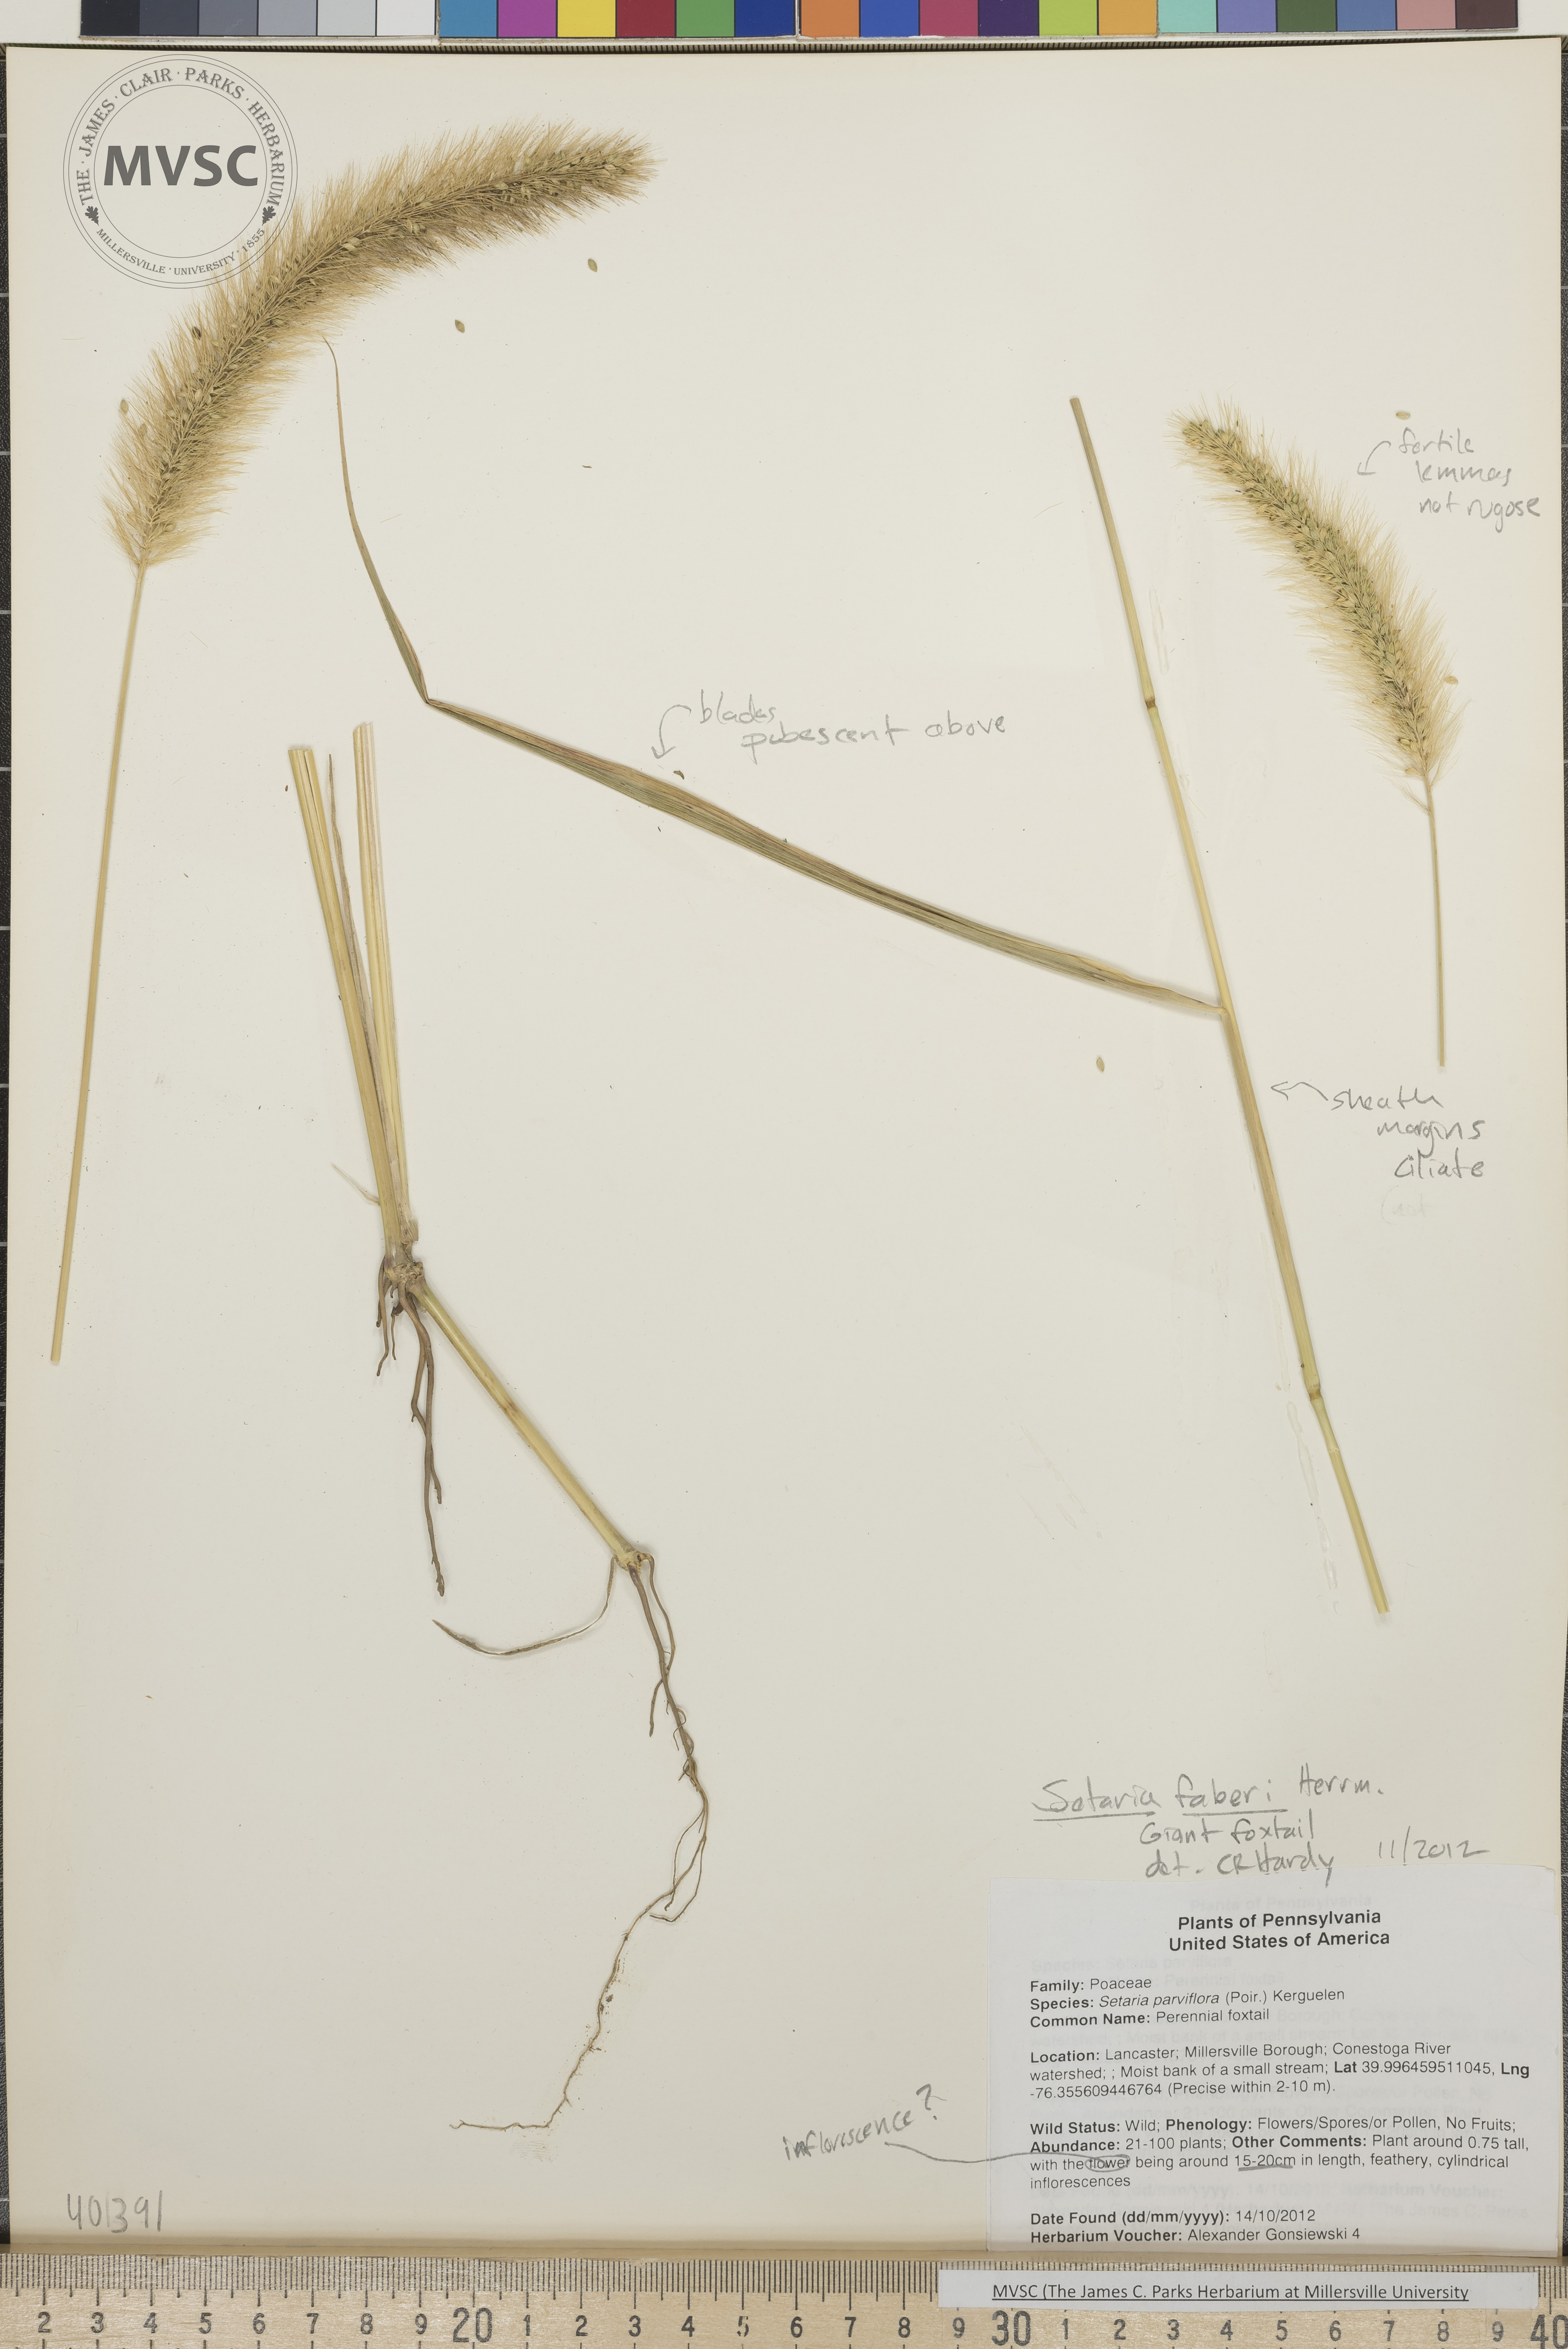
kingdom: Plantae
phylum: Tracheophyta
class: Liliopsida
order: Poales
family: Poaceae
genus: Setaria
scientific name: Setaria faberi
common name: Giant foxtail
